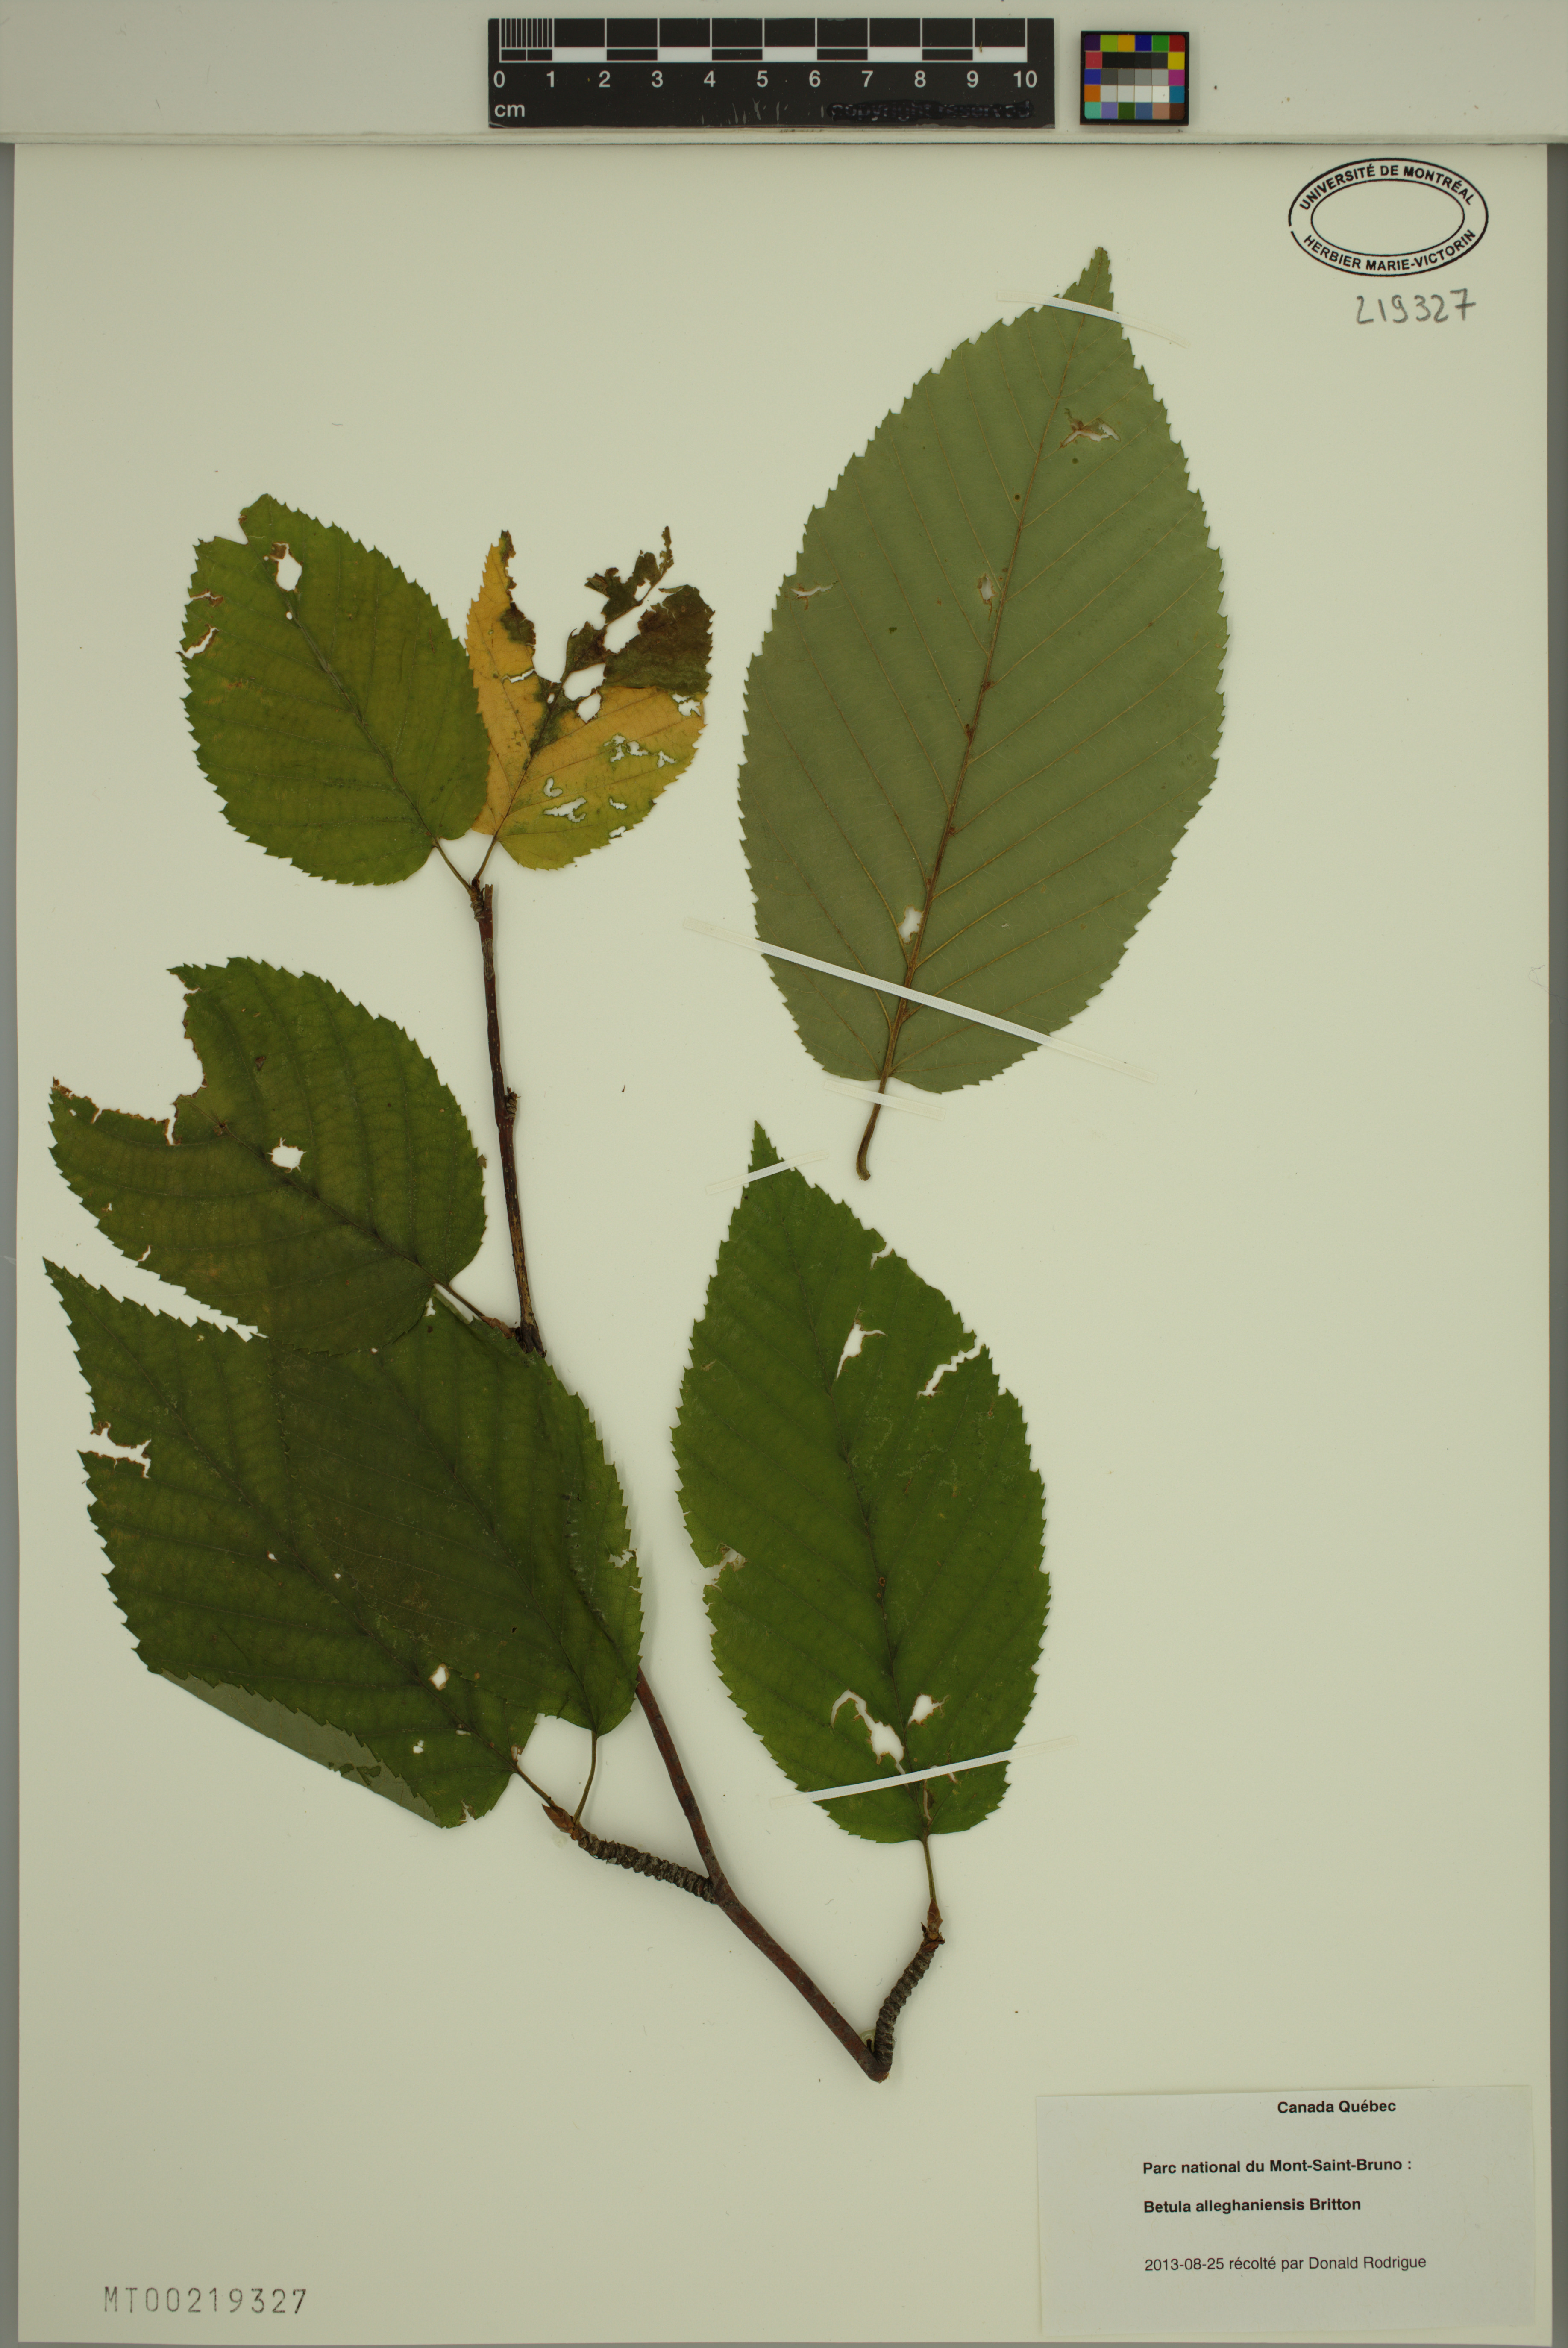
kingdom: Plantae
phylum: Tracheophyta
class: Magnoliopsida
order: Fagales
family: Betulaceae
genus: Betula
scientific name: Betula alleghaniensis
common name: Yellow birch
